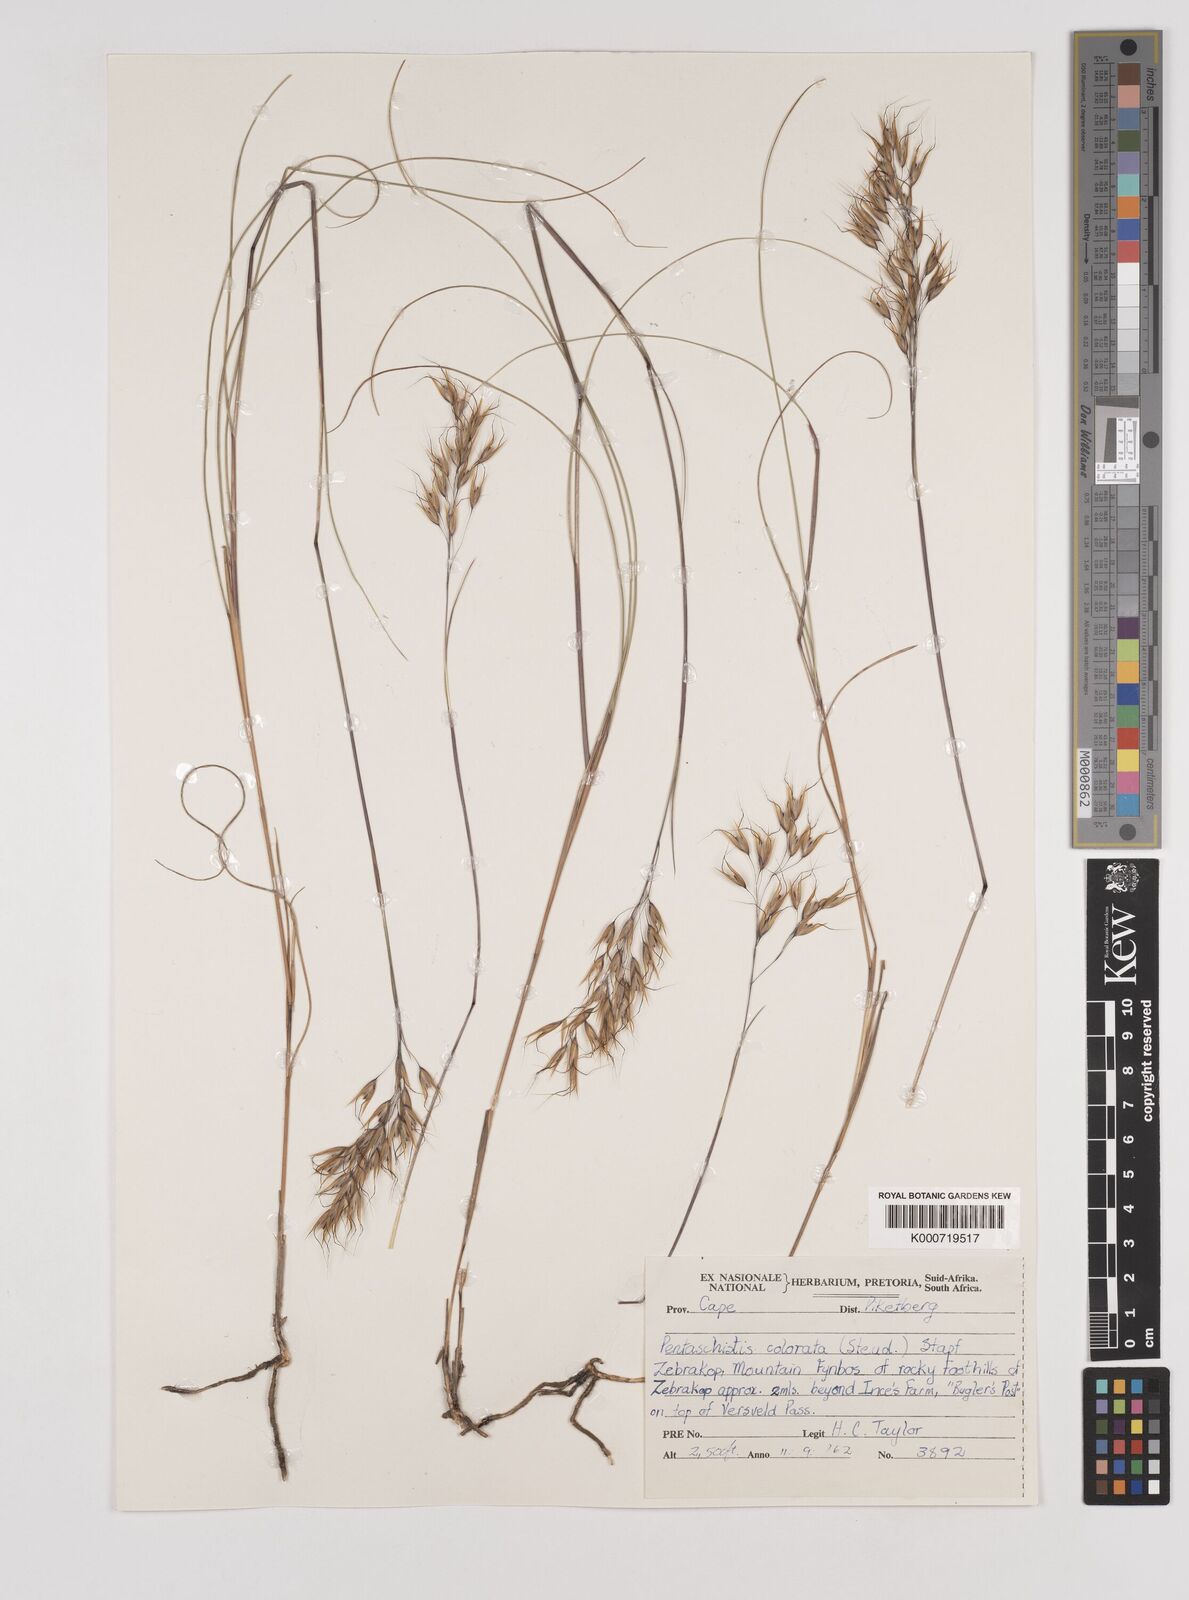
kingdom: Plantae
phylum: Tracheophyta
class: Liliopsida
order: Poales
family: Poaceae
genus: Pentameris
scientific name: Pentameris colorata
